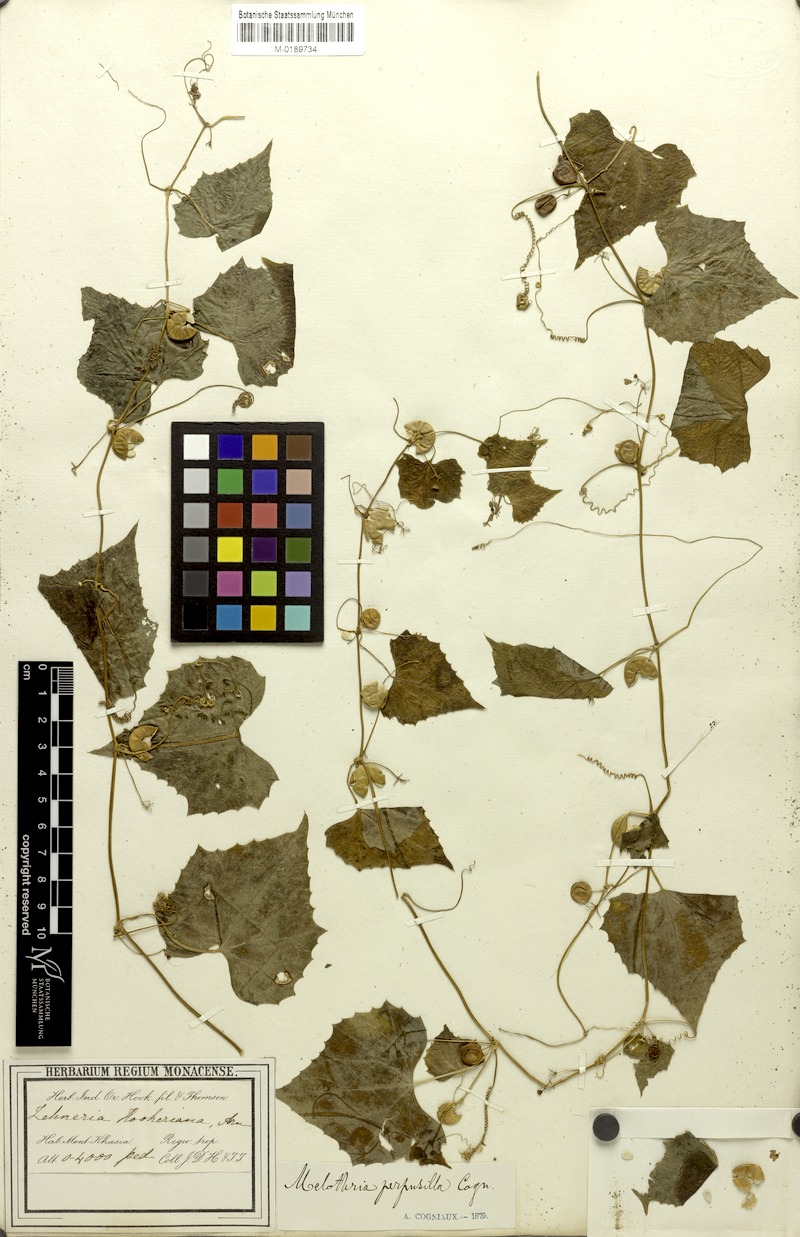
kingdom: Plantae
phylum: Tracheophyta
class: Magnoliopsida
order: Cucurbitales
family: Cucurbitaceae
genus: Zehneria
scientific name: Zehneria scabra
